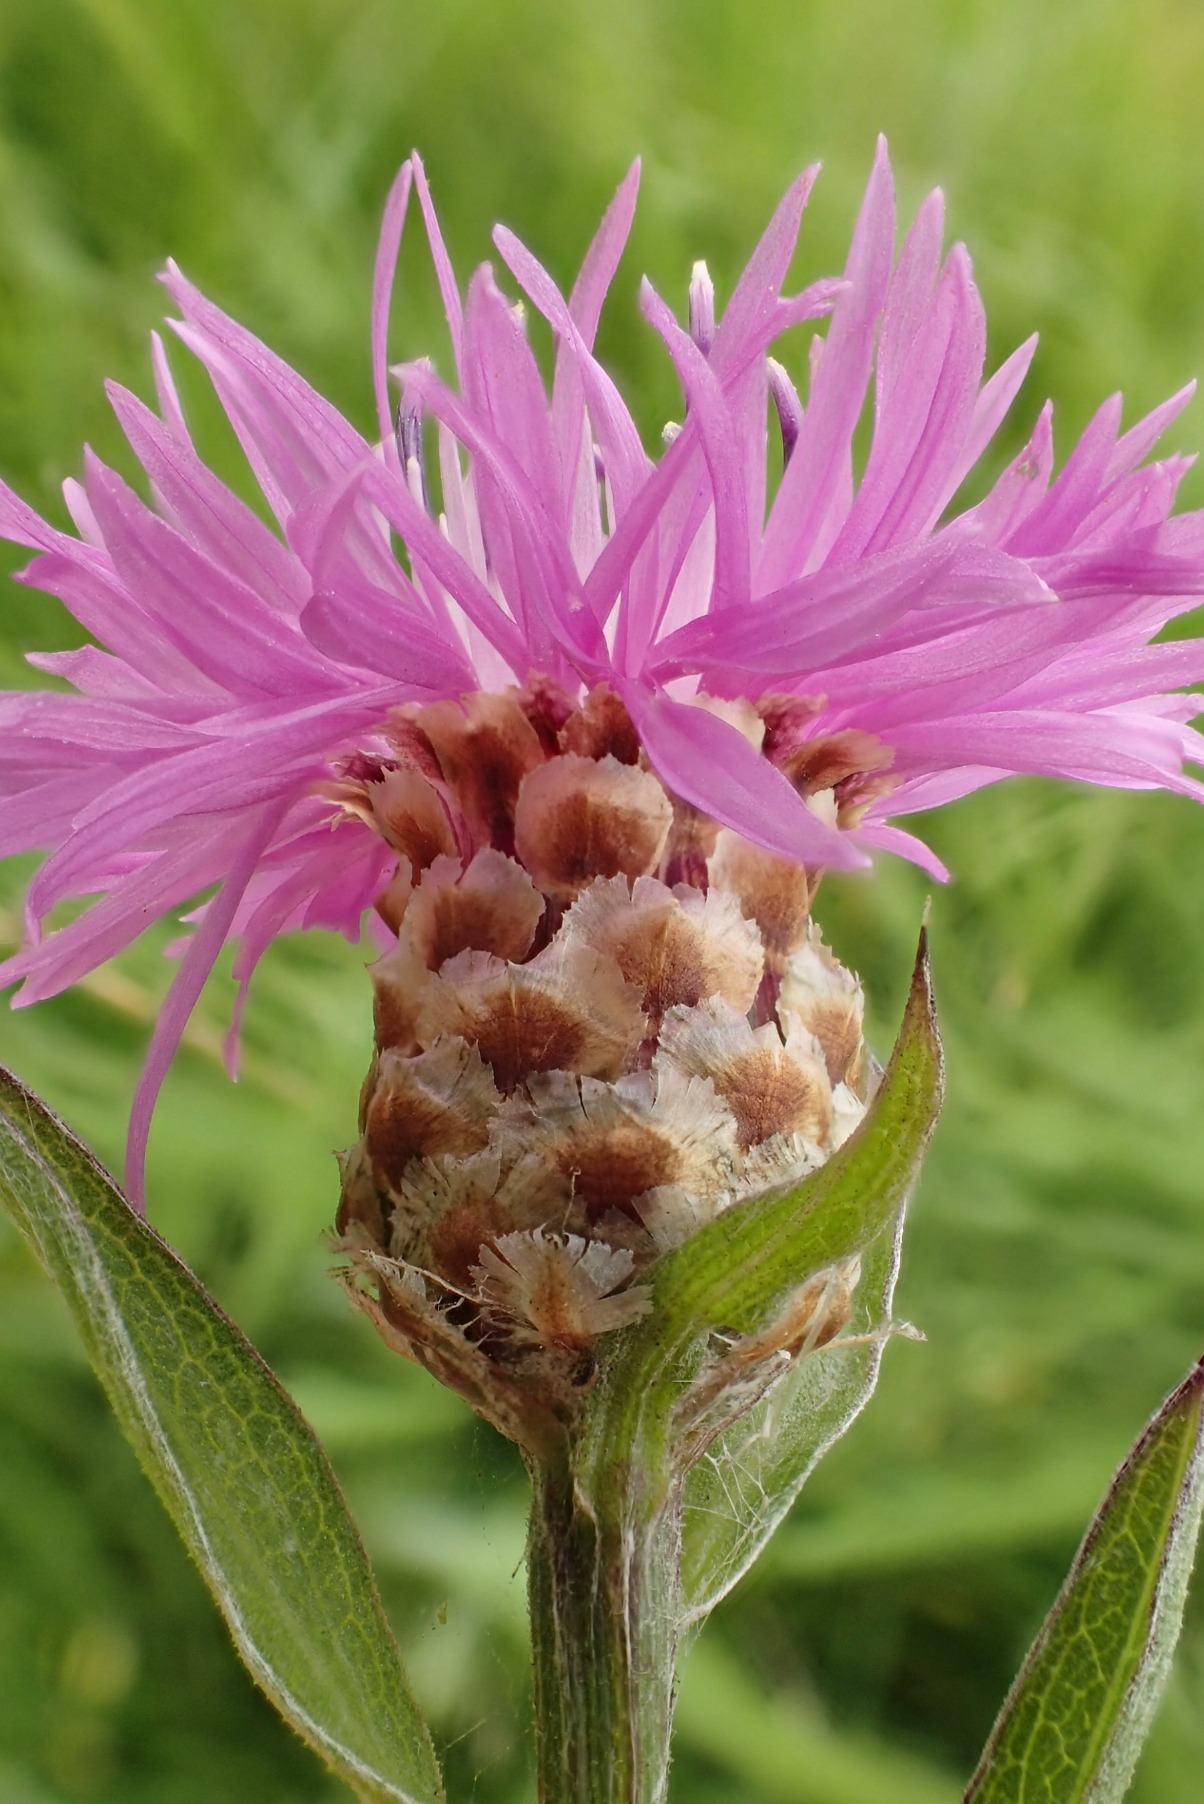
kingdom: Plantae
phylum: Tracheophyta
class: Magnoliopsida
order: Asterales
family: Asteraceae
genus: Centaurea
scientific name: Centaurea jacea
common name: Almindelig knopurt
